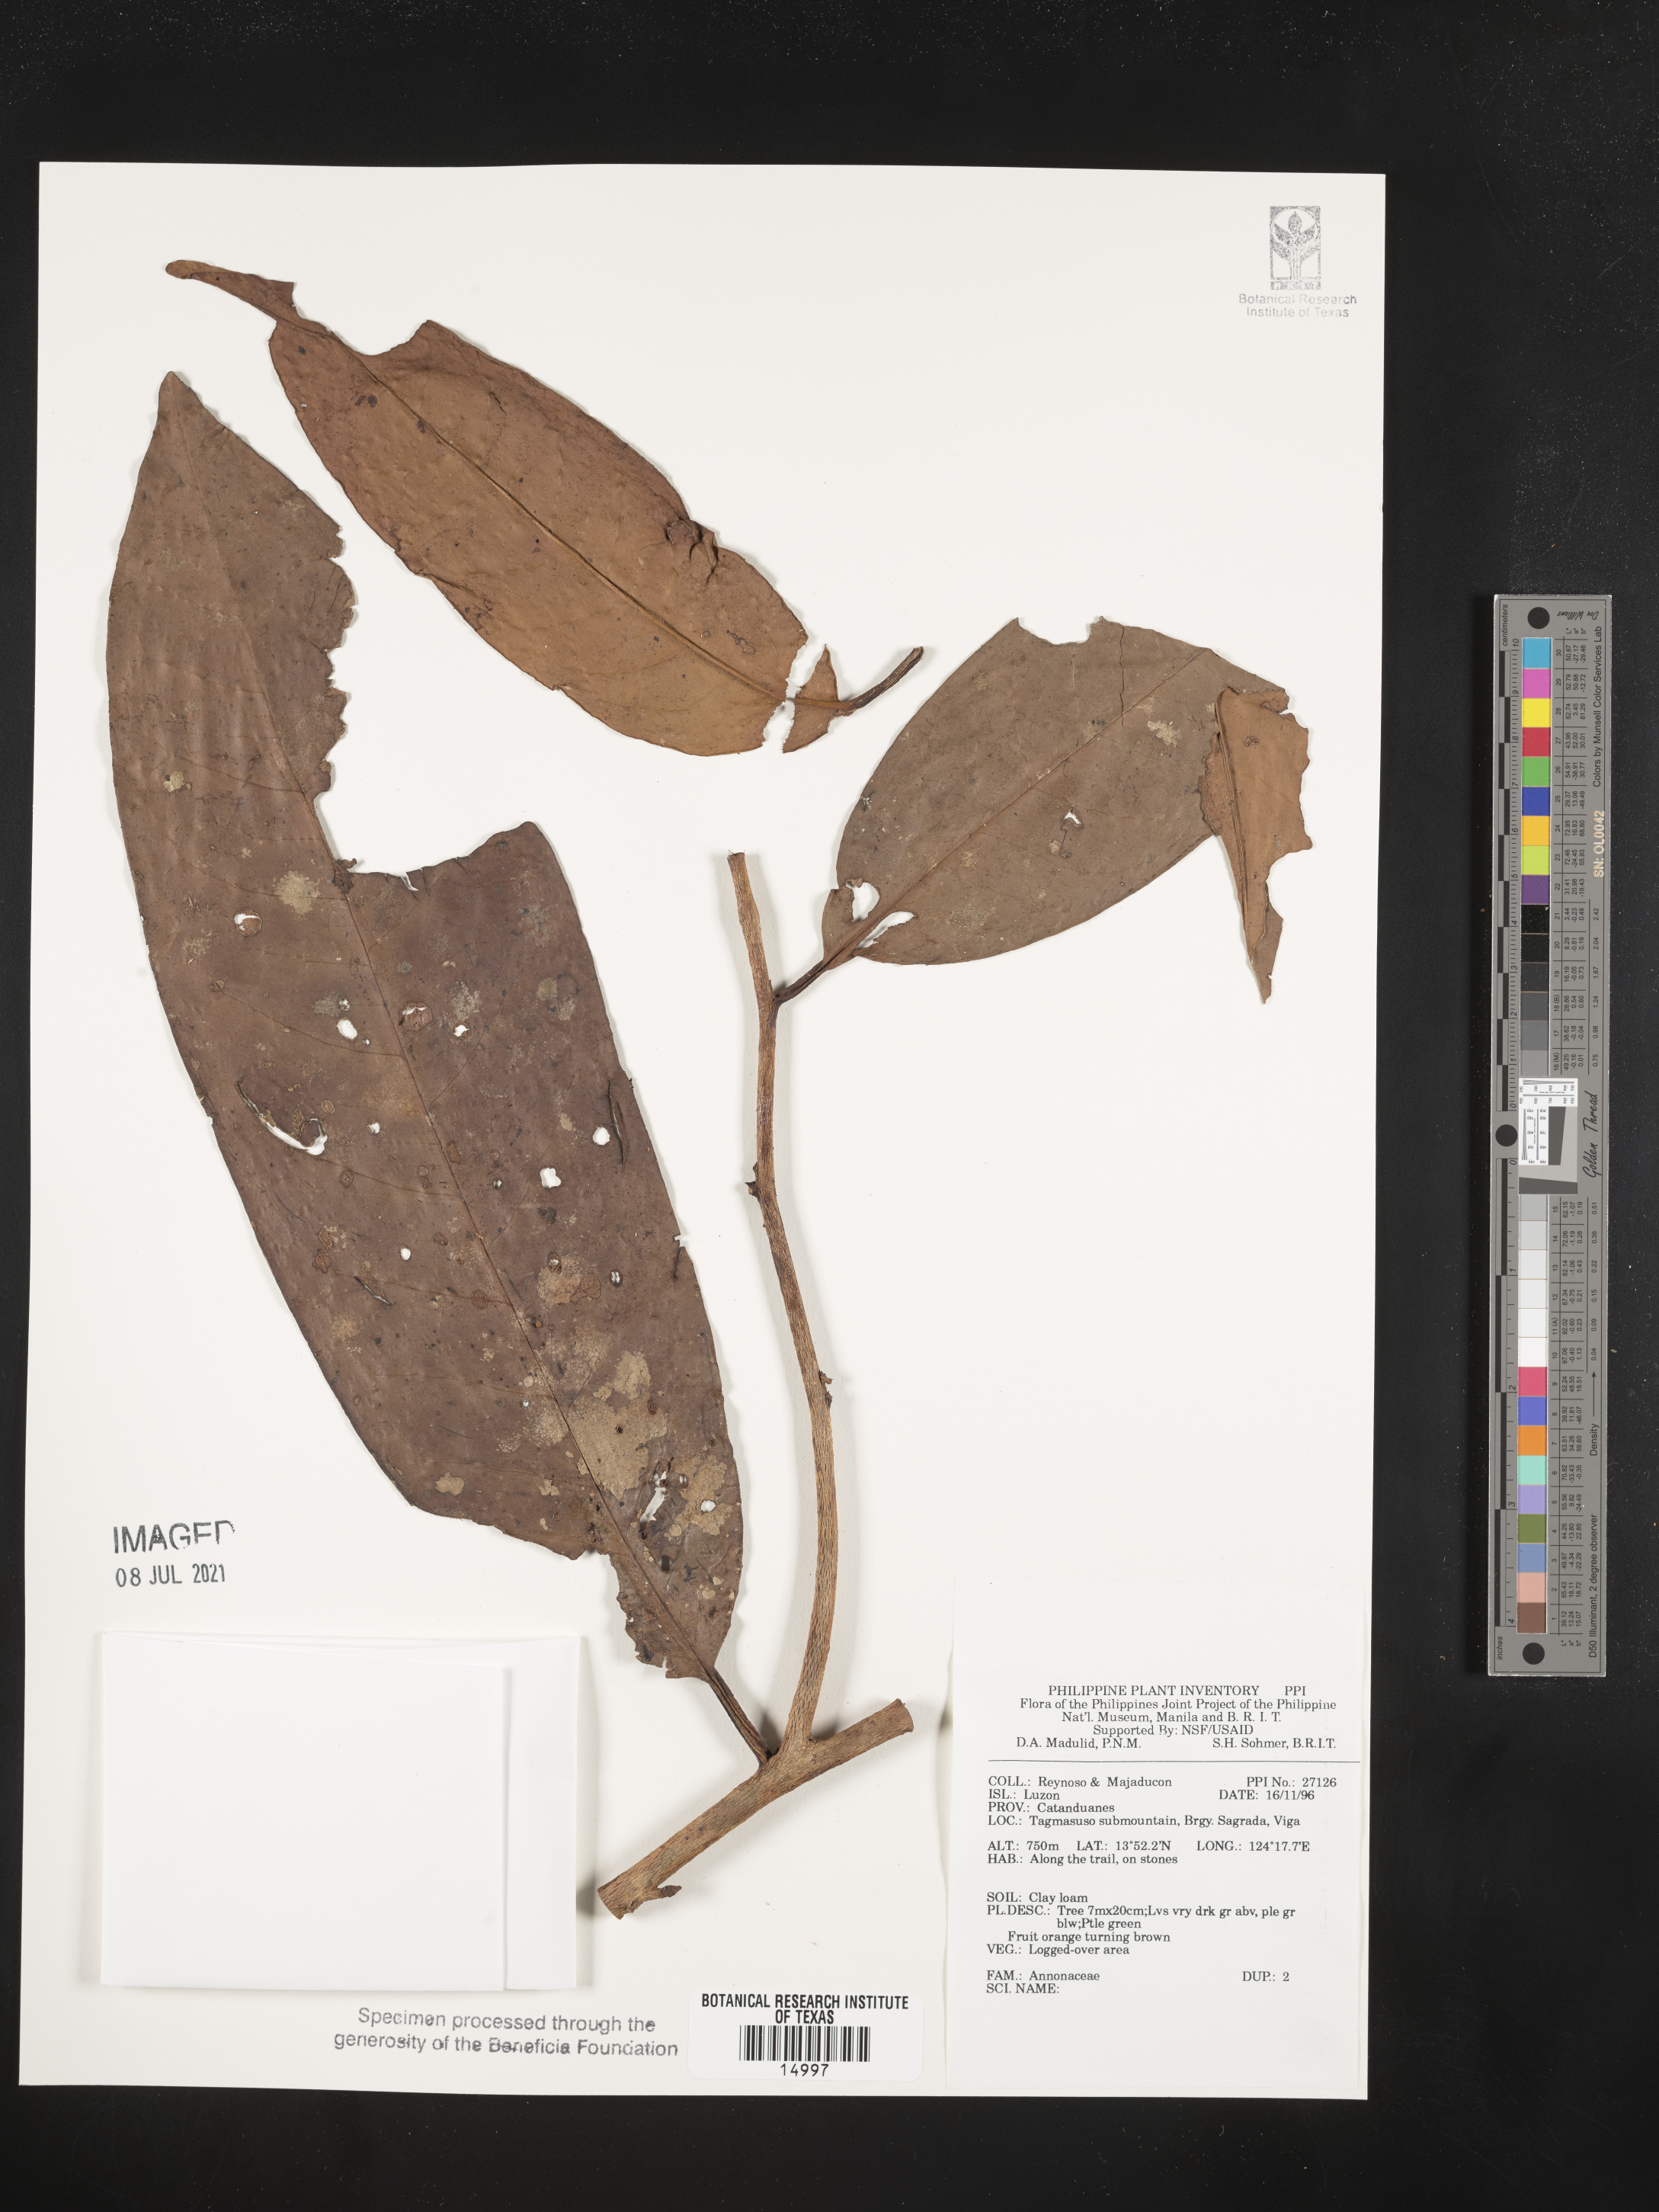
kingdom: Plantae
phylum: Tracheophyta
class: Magnoliopsida
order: Magnoliales
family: Annonaceae
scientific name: Annonaceae
